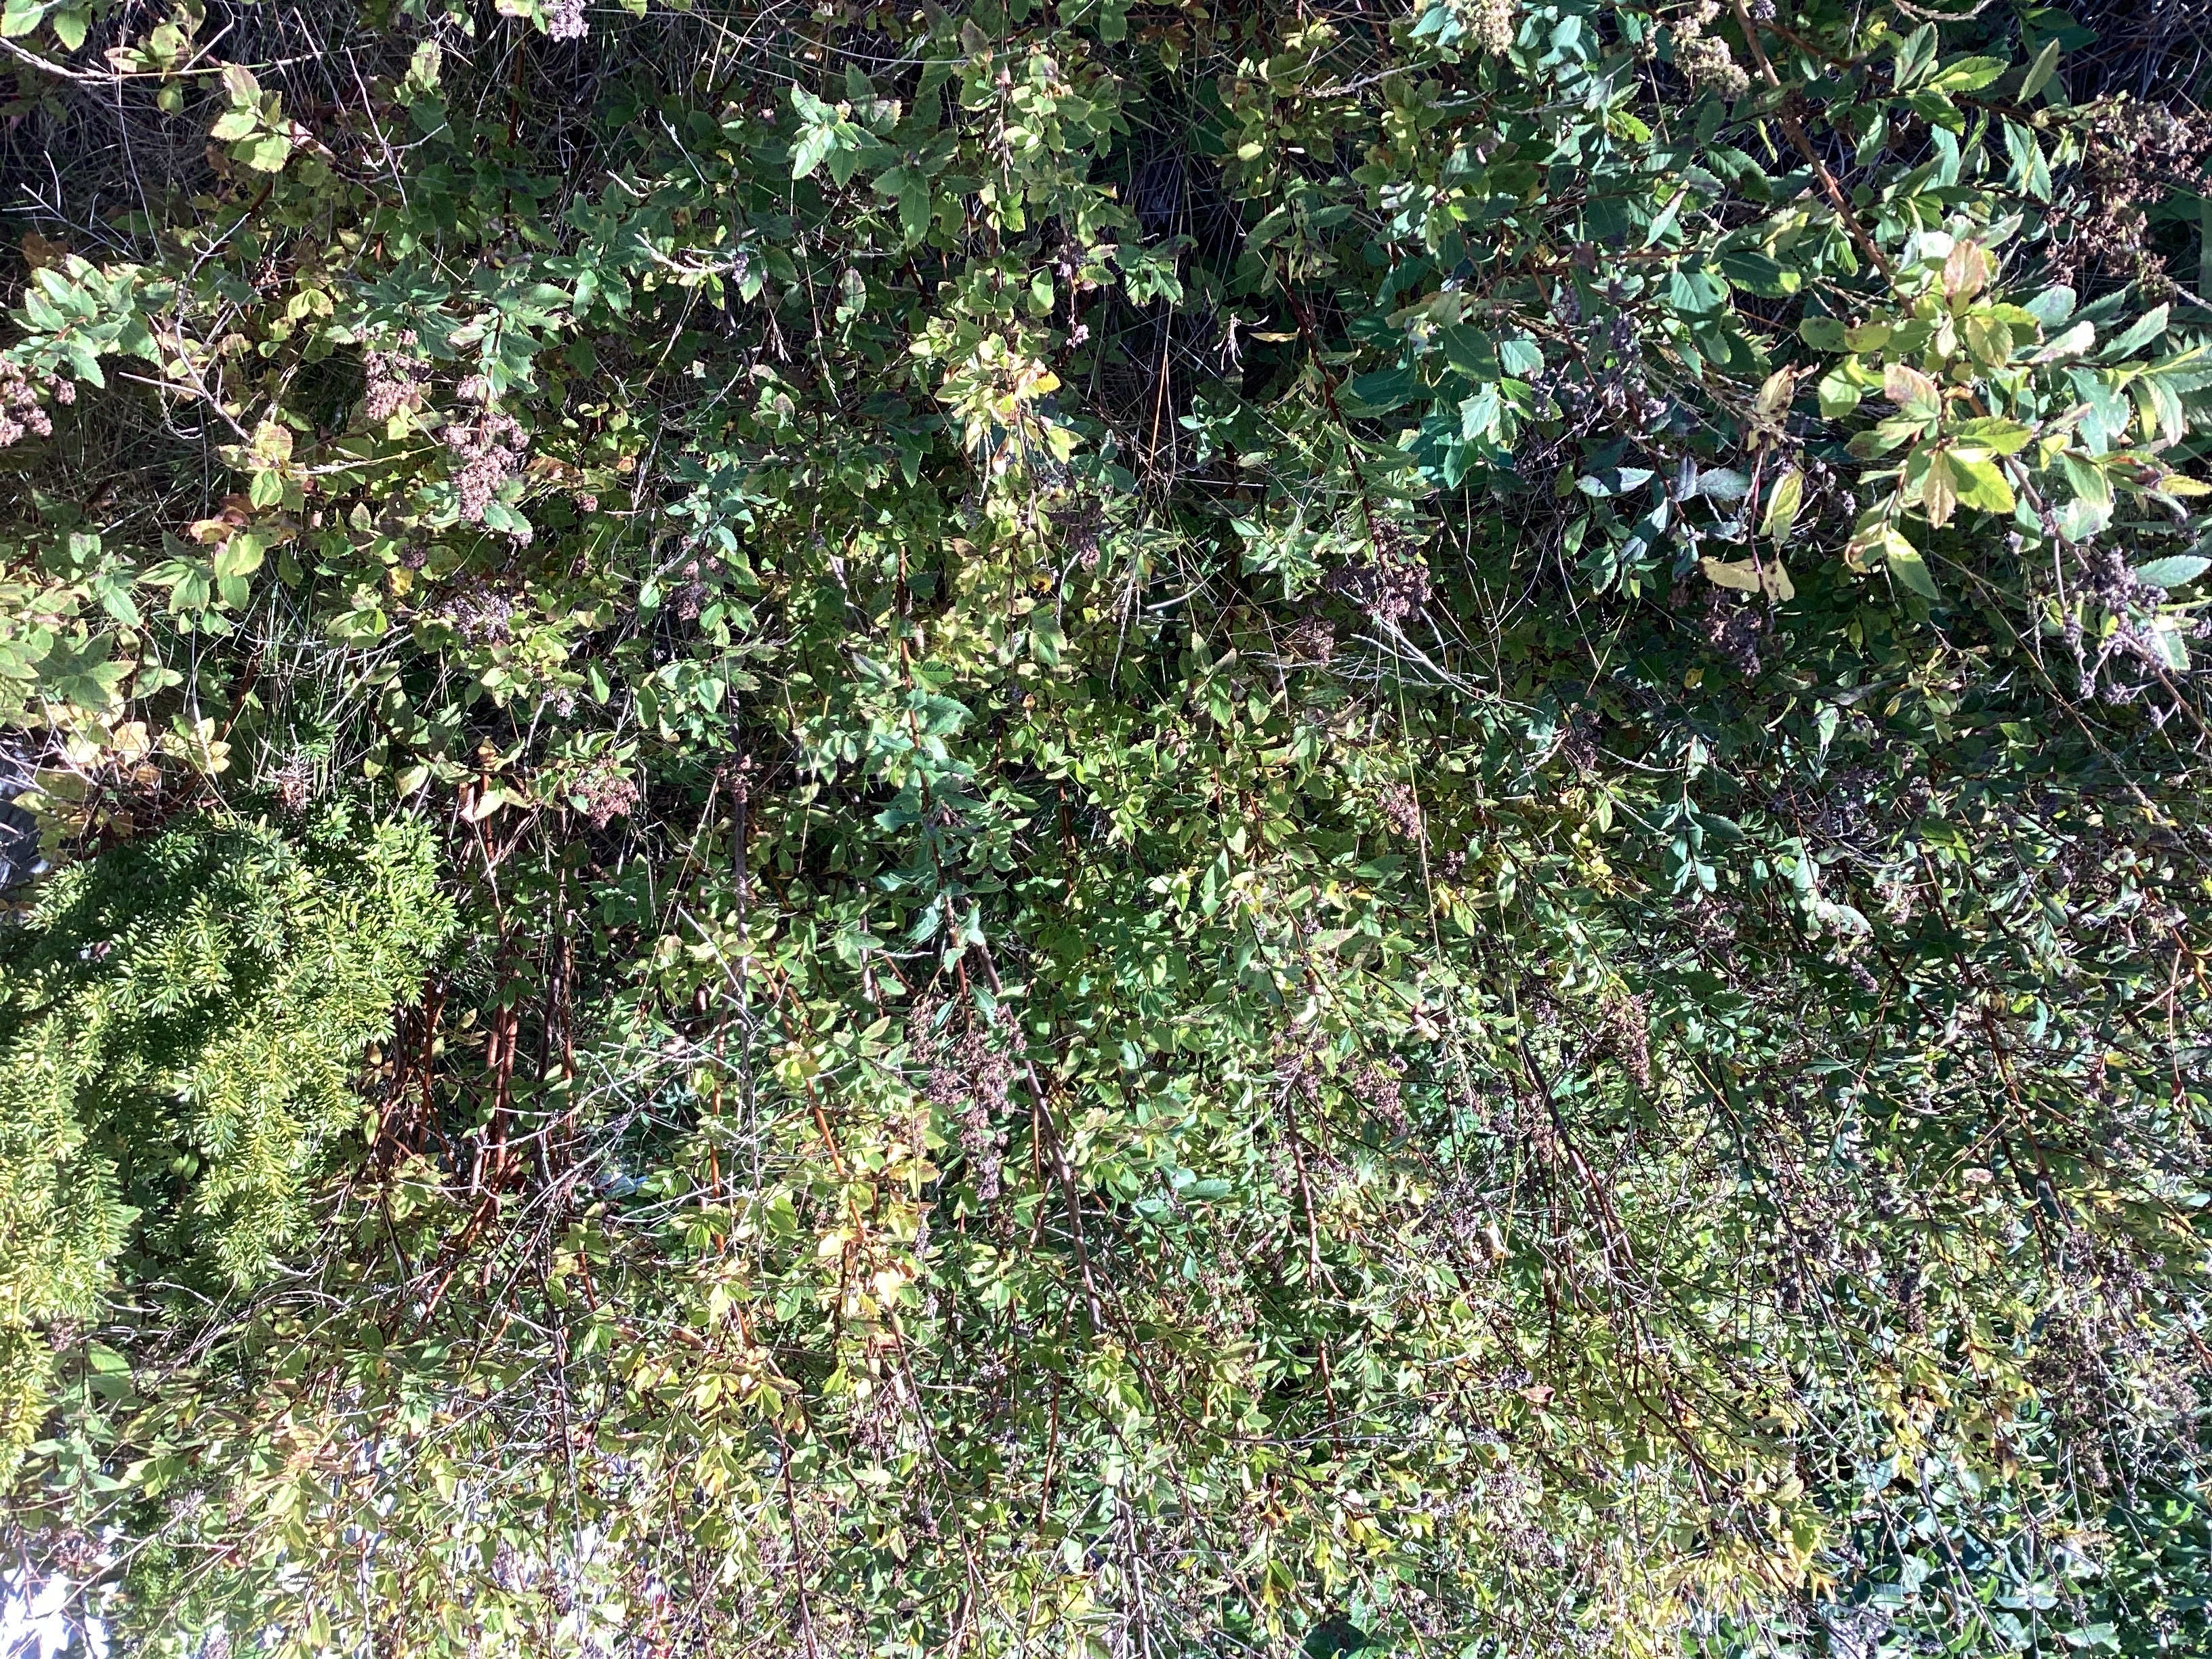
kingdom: Plantae
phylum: Tracheophyta
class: Magnoliopsida
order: Rosales
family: Rosaceae
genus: Spiraea
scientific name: Spiraea rosalba
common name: bleikspirea
